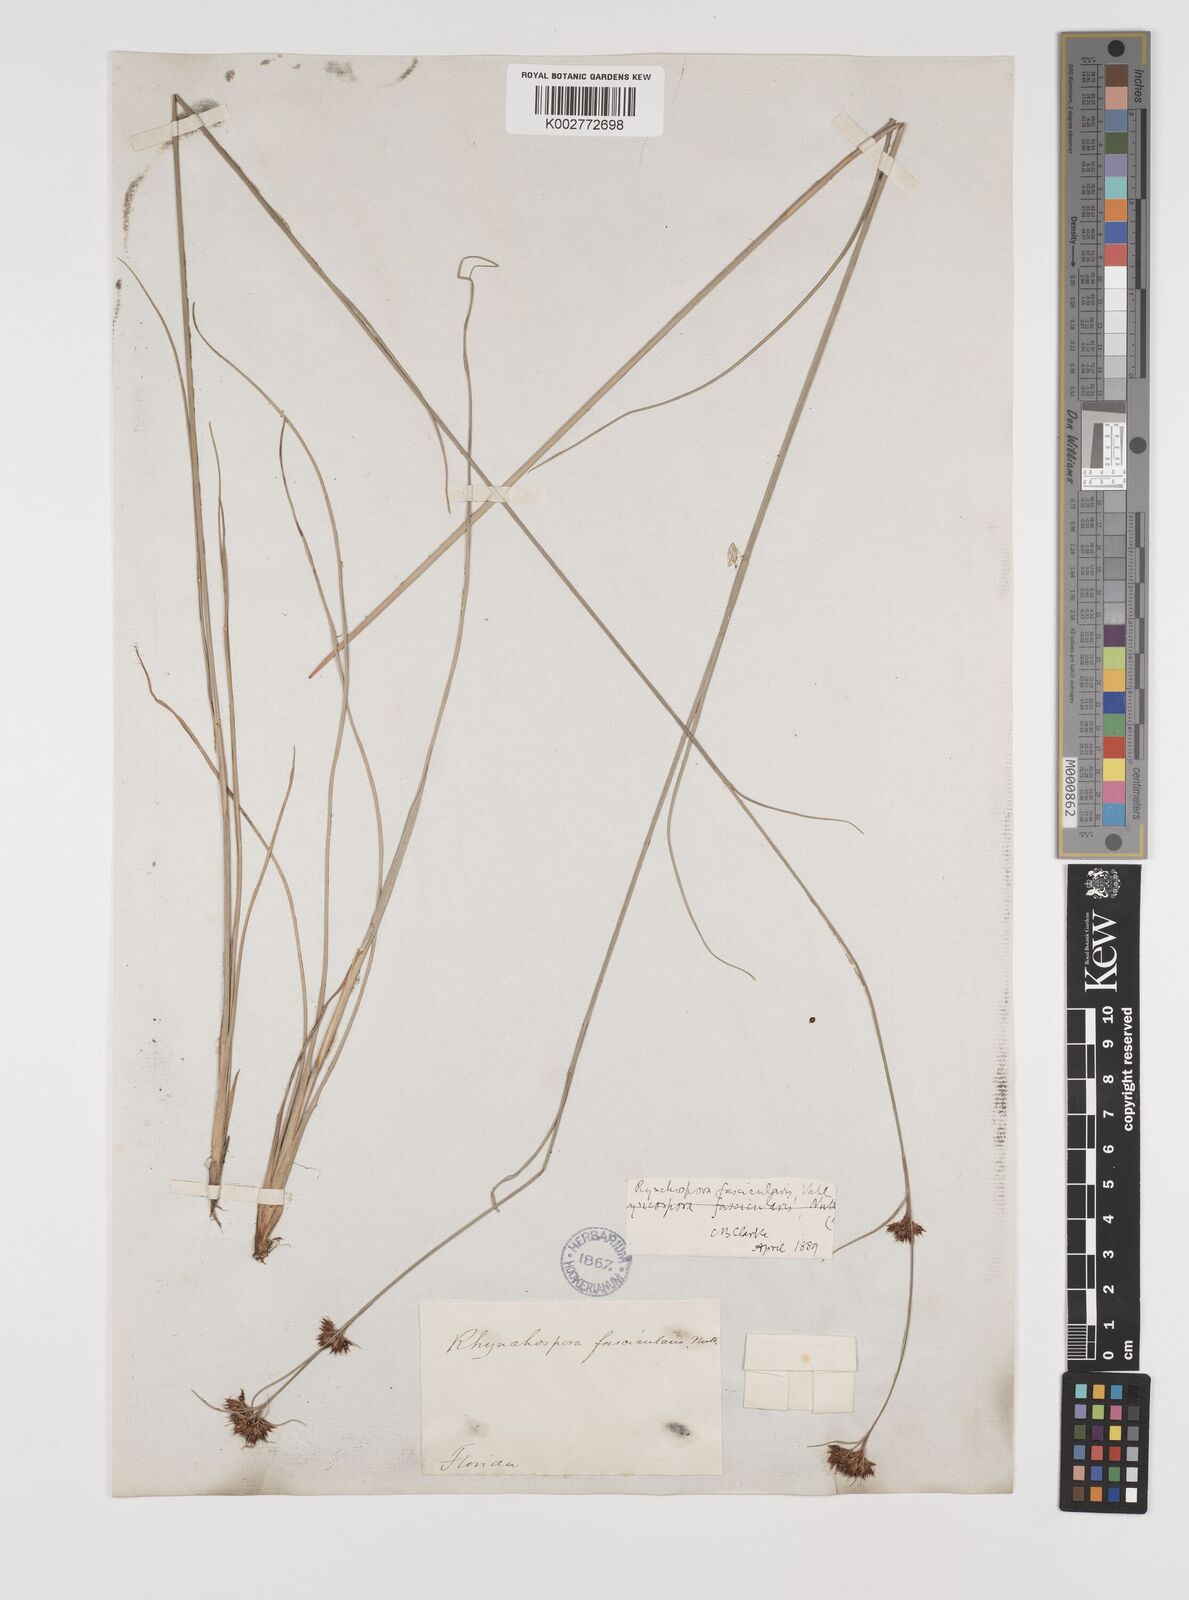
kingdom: Plantae
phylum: Tracheophyta
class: Liliopsida
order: Poales
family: Cyperaceae
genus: Rhynchospora
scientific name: Rhynchospora fascicularis
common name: Fascicled beak sedge
